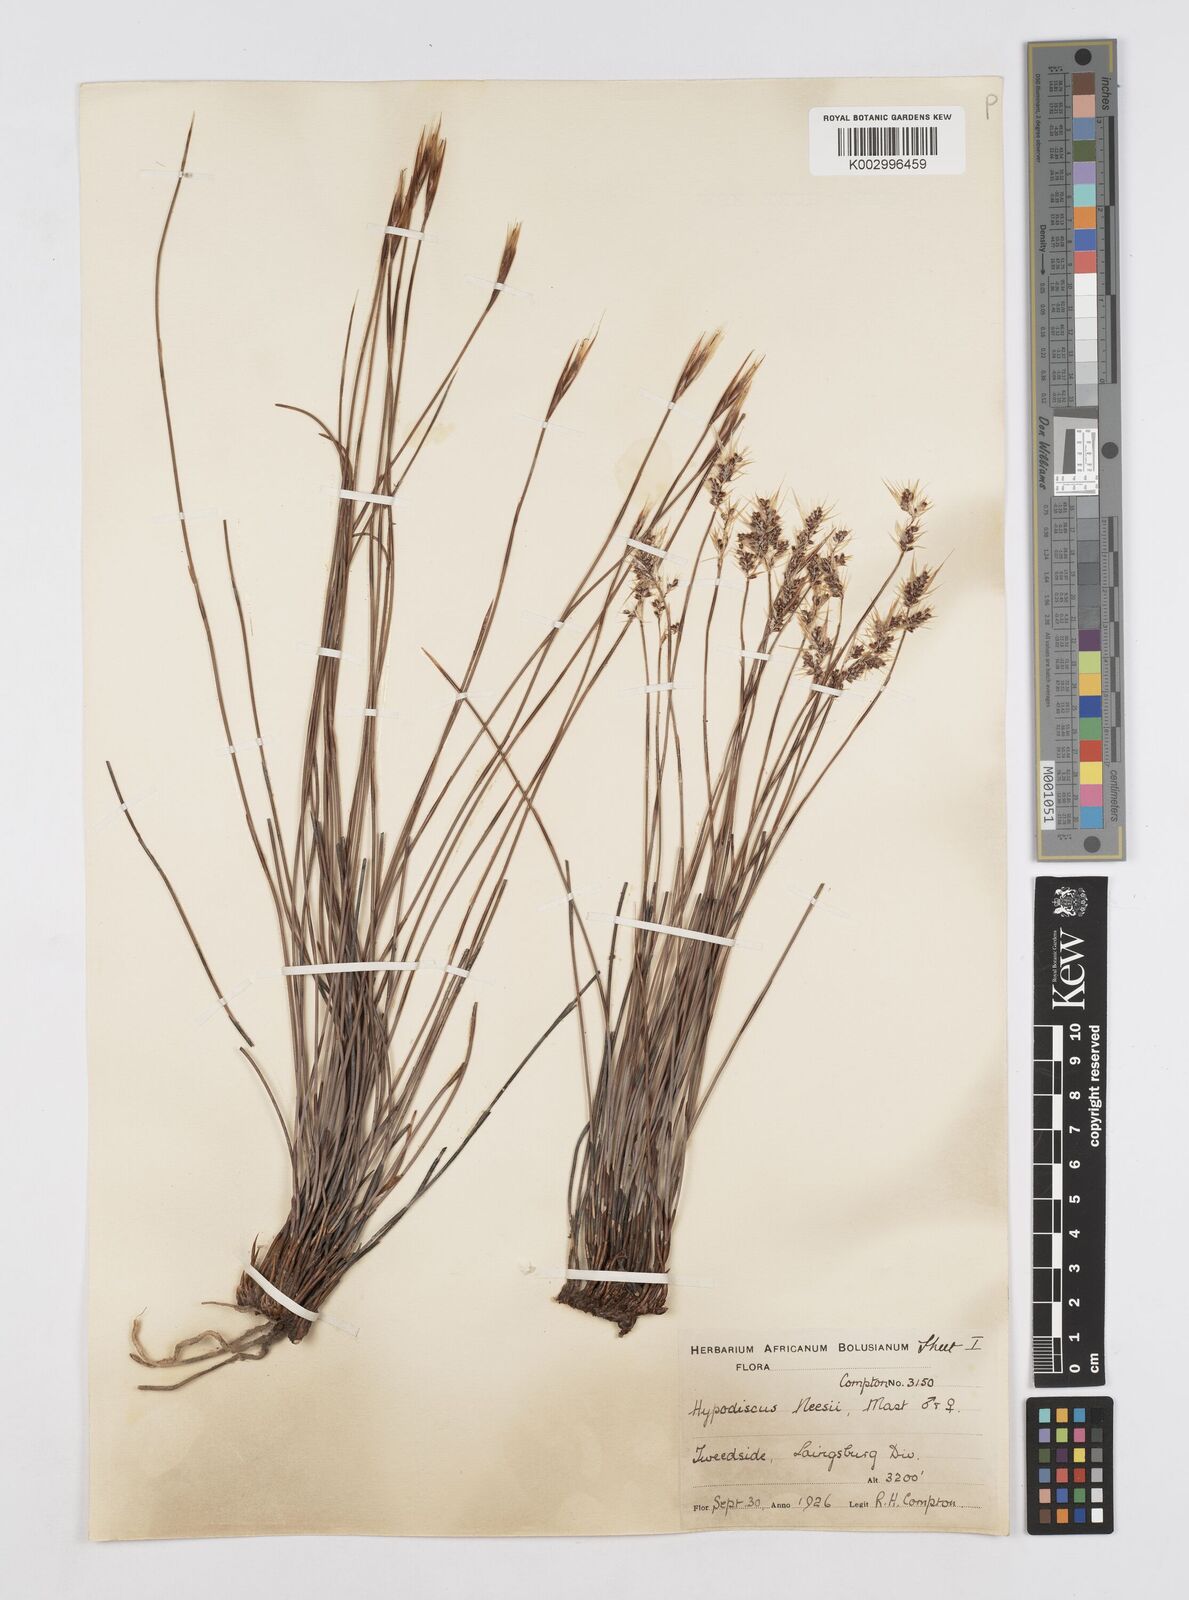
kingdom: Plantae
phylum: Tracheophyta
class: Liliopsida
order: Poales
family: Restionaceae
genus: Hypodiscus
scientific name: Hypodiscus neesii
